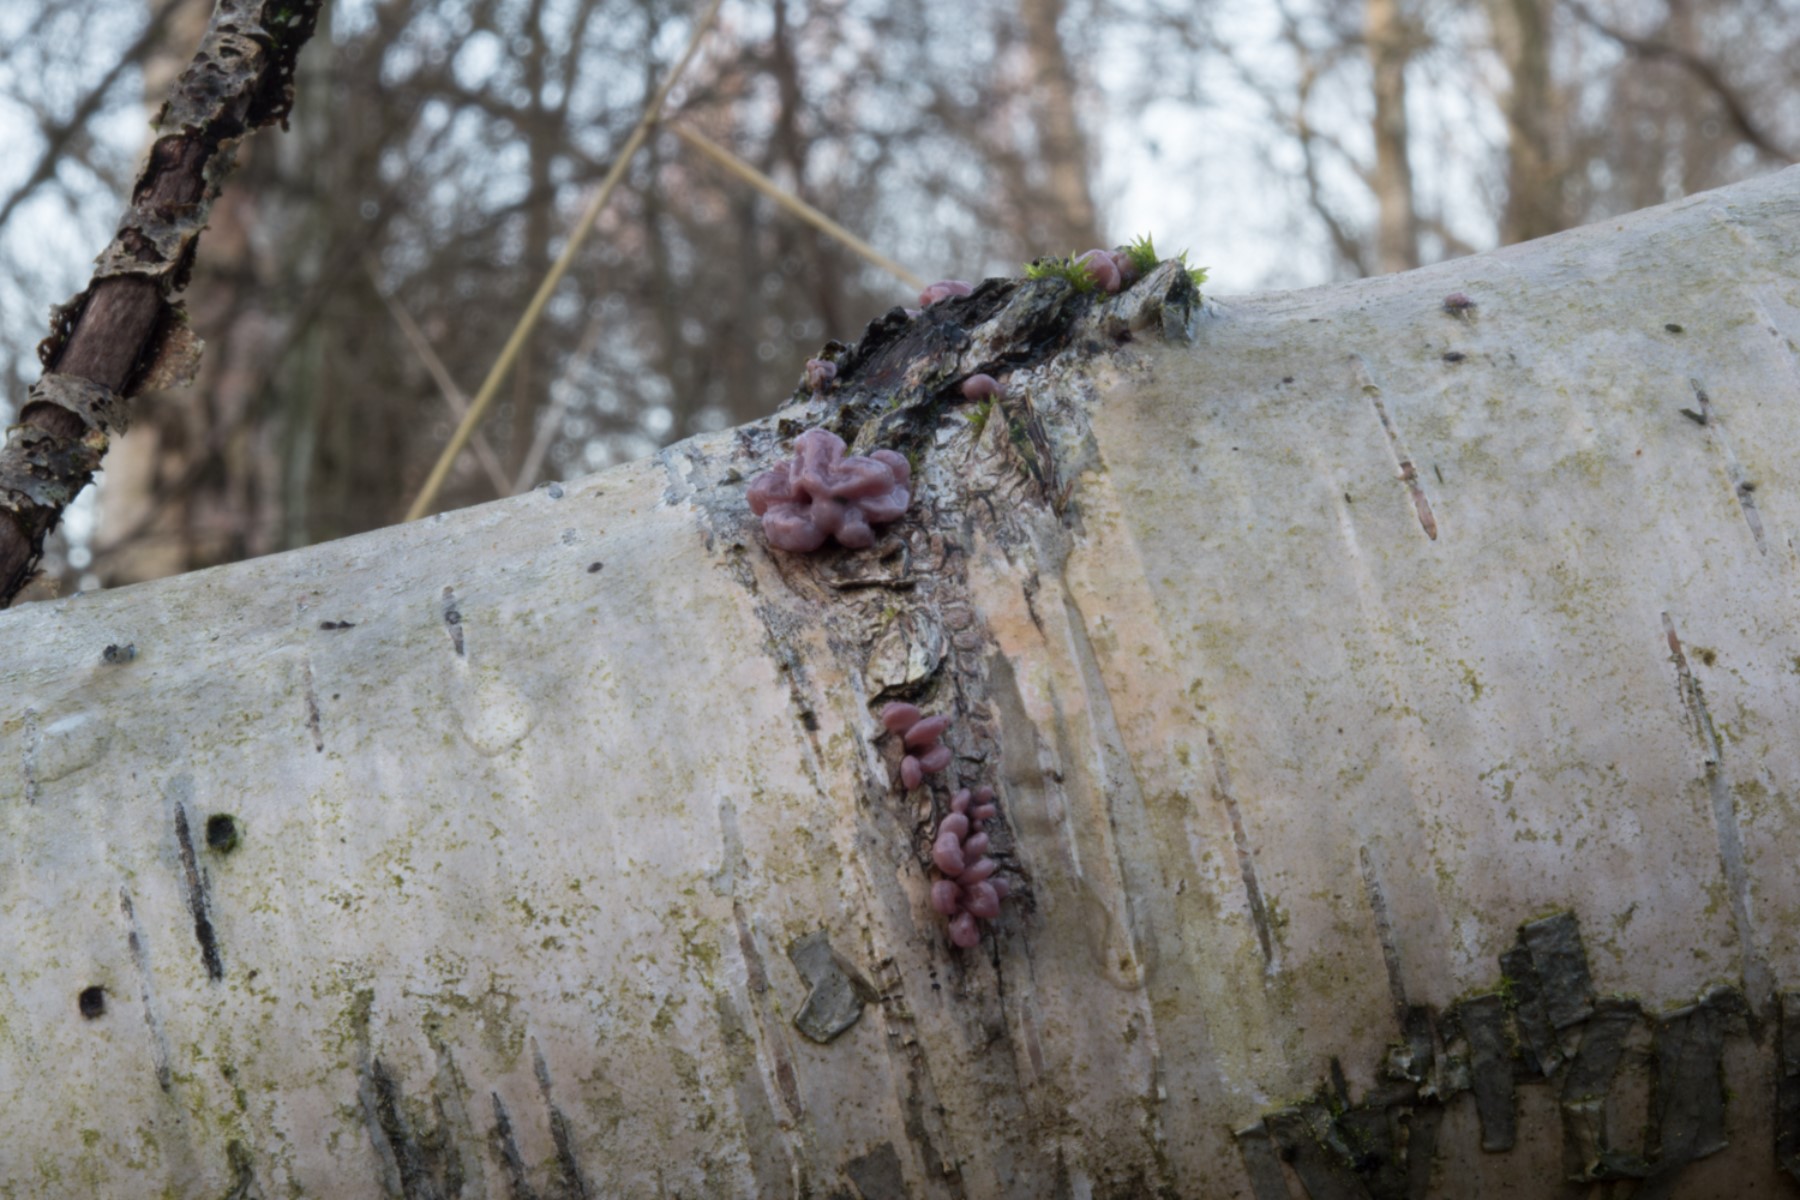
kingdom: Fungi
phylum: Ascomycota
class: Leotiomycetes
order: Helotiales
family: Gelatinodiscaceae
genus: Ascocoryne
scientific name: Ascocoryne sarcoides
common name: rødlilla sejskive
